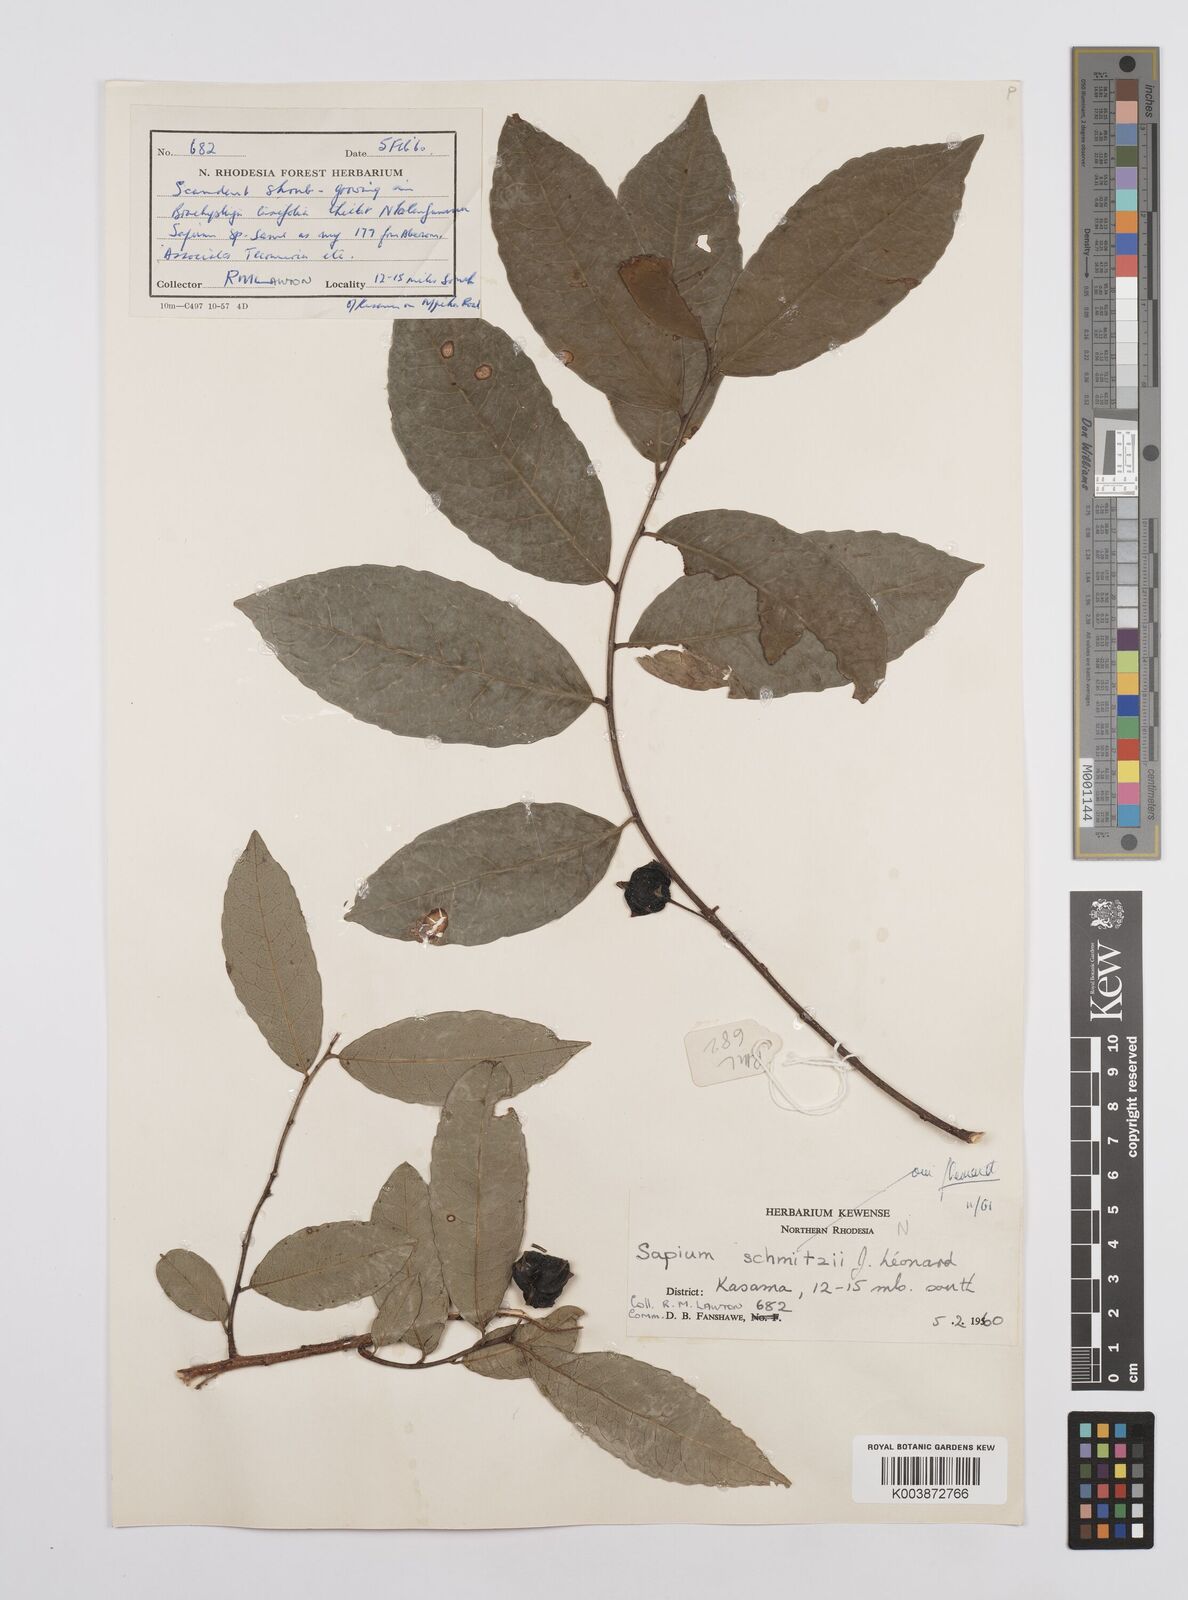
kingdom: Plantae
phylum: Tracheophyta
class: Magnoliopsida
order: Malpighiales
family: Euphorbiaceae
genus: Sclerocroton
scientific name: Sclerocroton schmitzii
